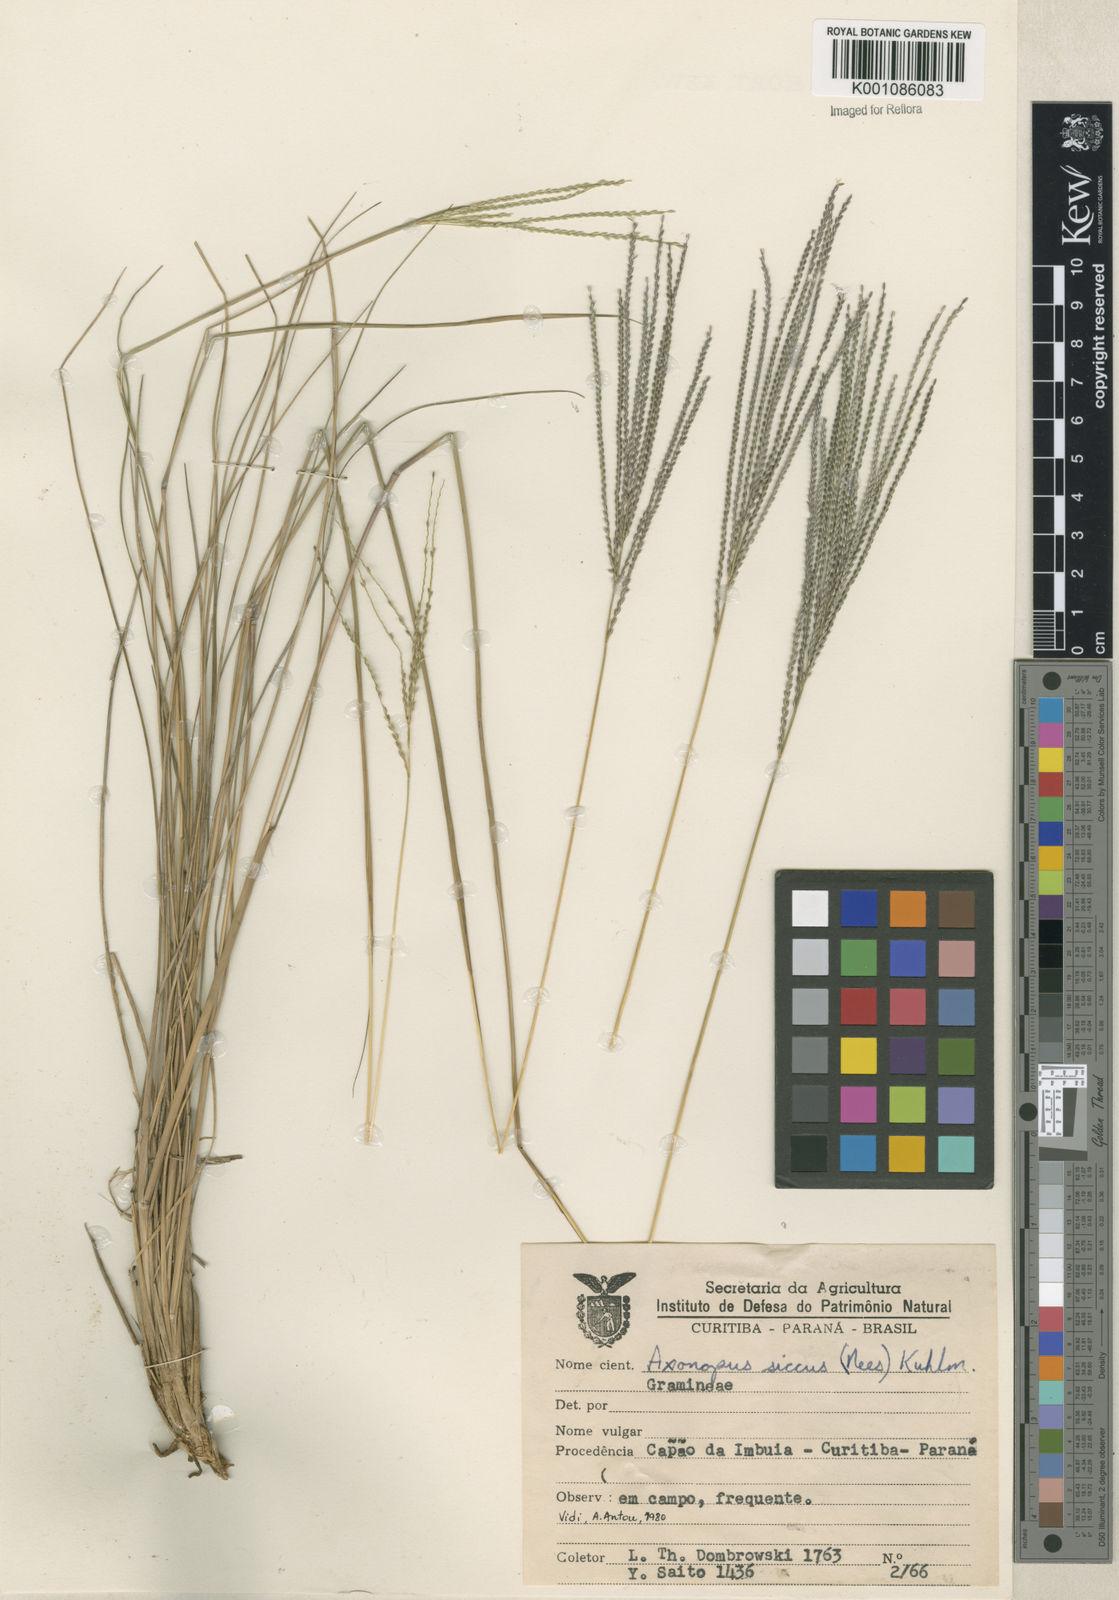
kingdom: Plantae
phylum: Tracheophyta
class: Liliopsida
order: Poales
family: Poaceae
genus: Axonopus
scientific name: Axonopus siccus
